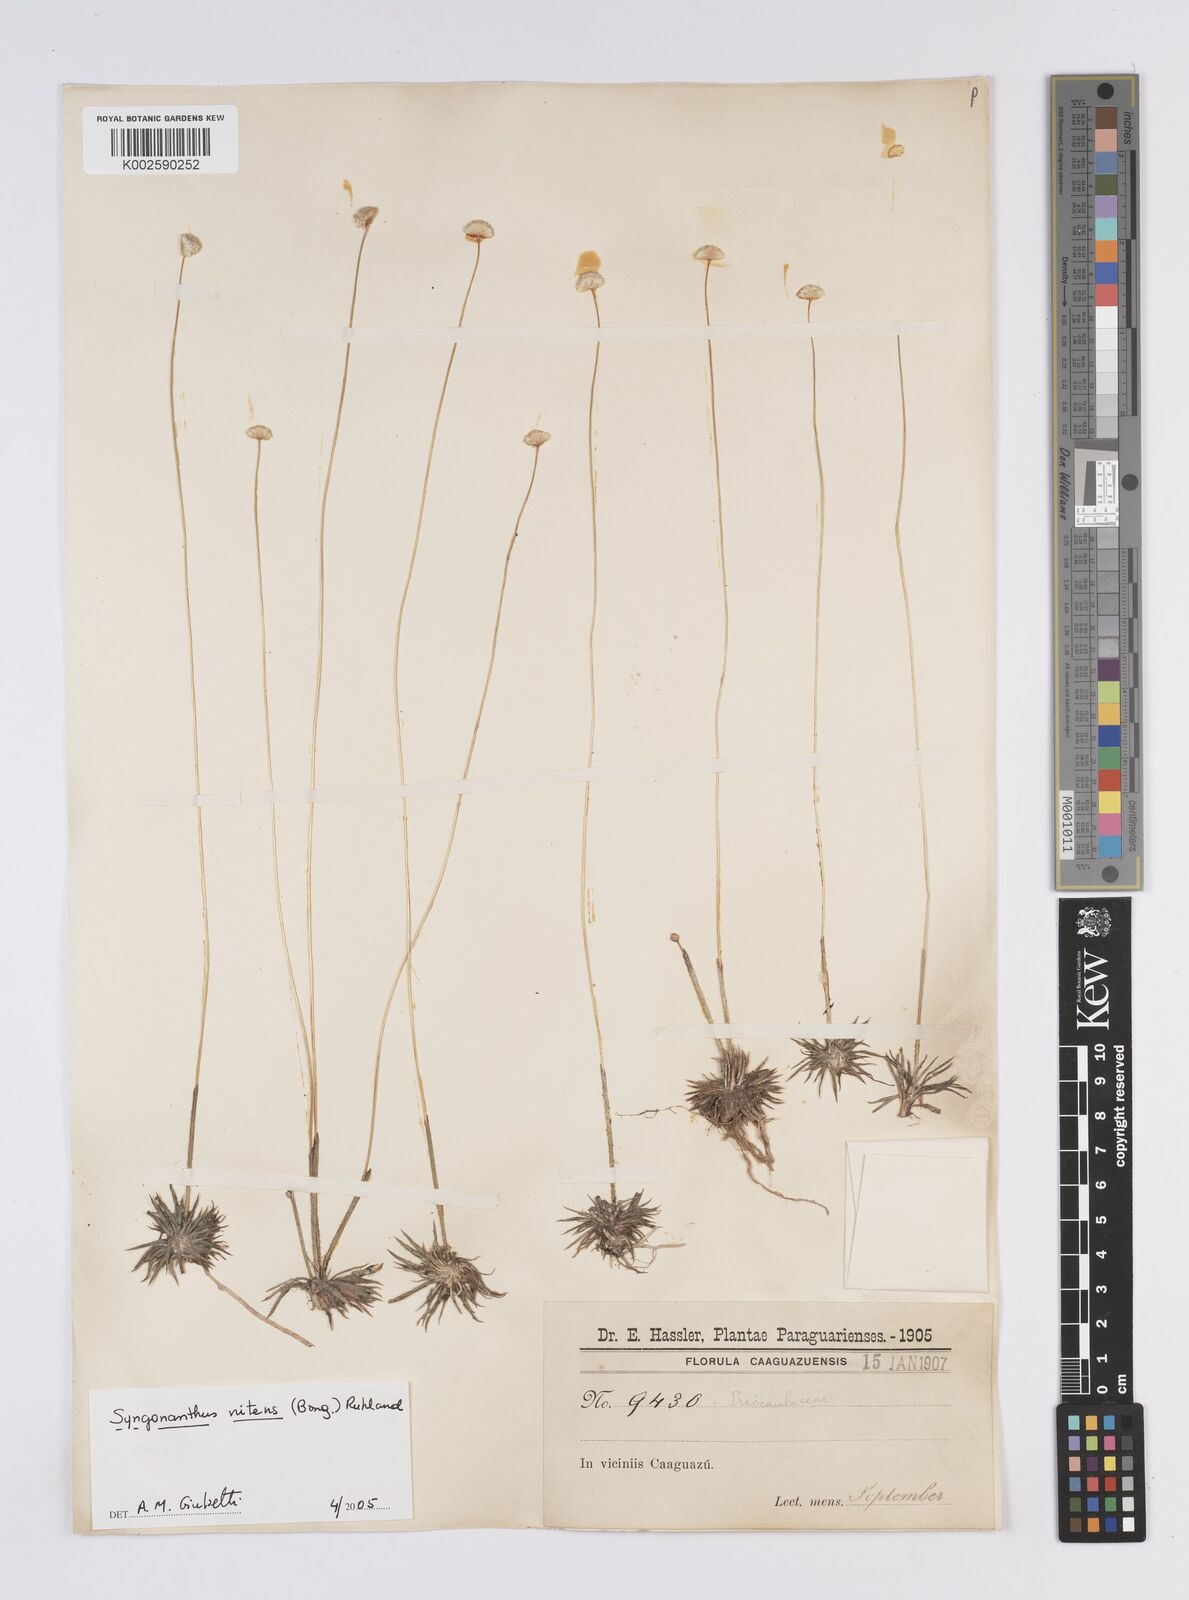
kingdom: Plantae
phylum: Tracheophyta
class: Liliopsida
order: Poales
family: Eriocaulaceae
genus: Syngonanthus
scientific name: Syngonanthus nitens
